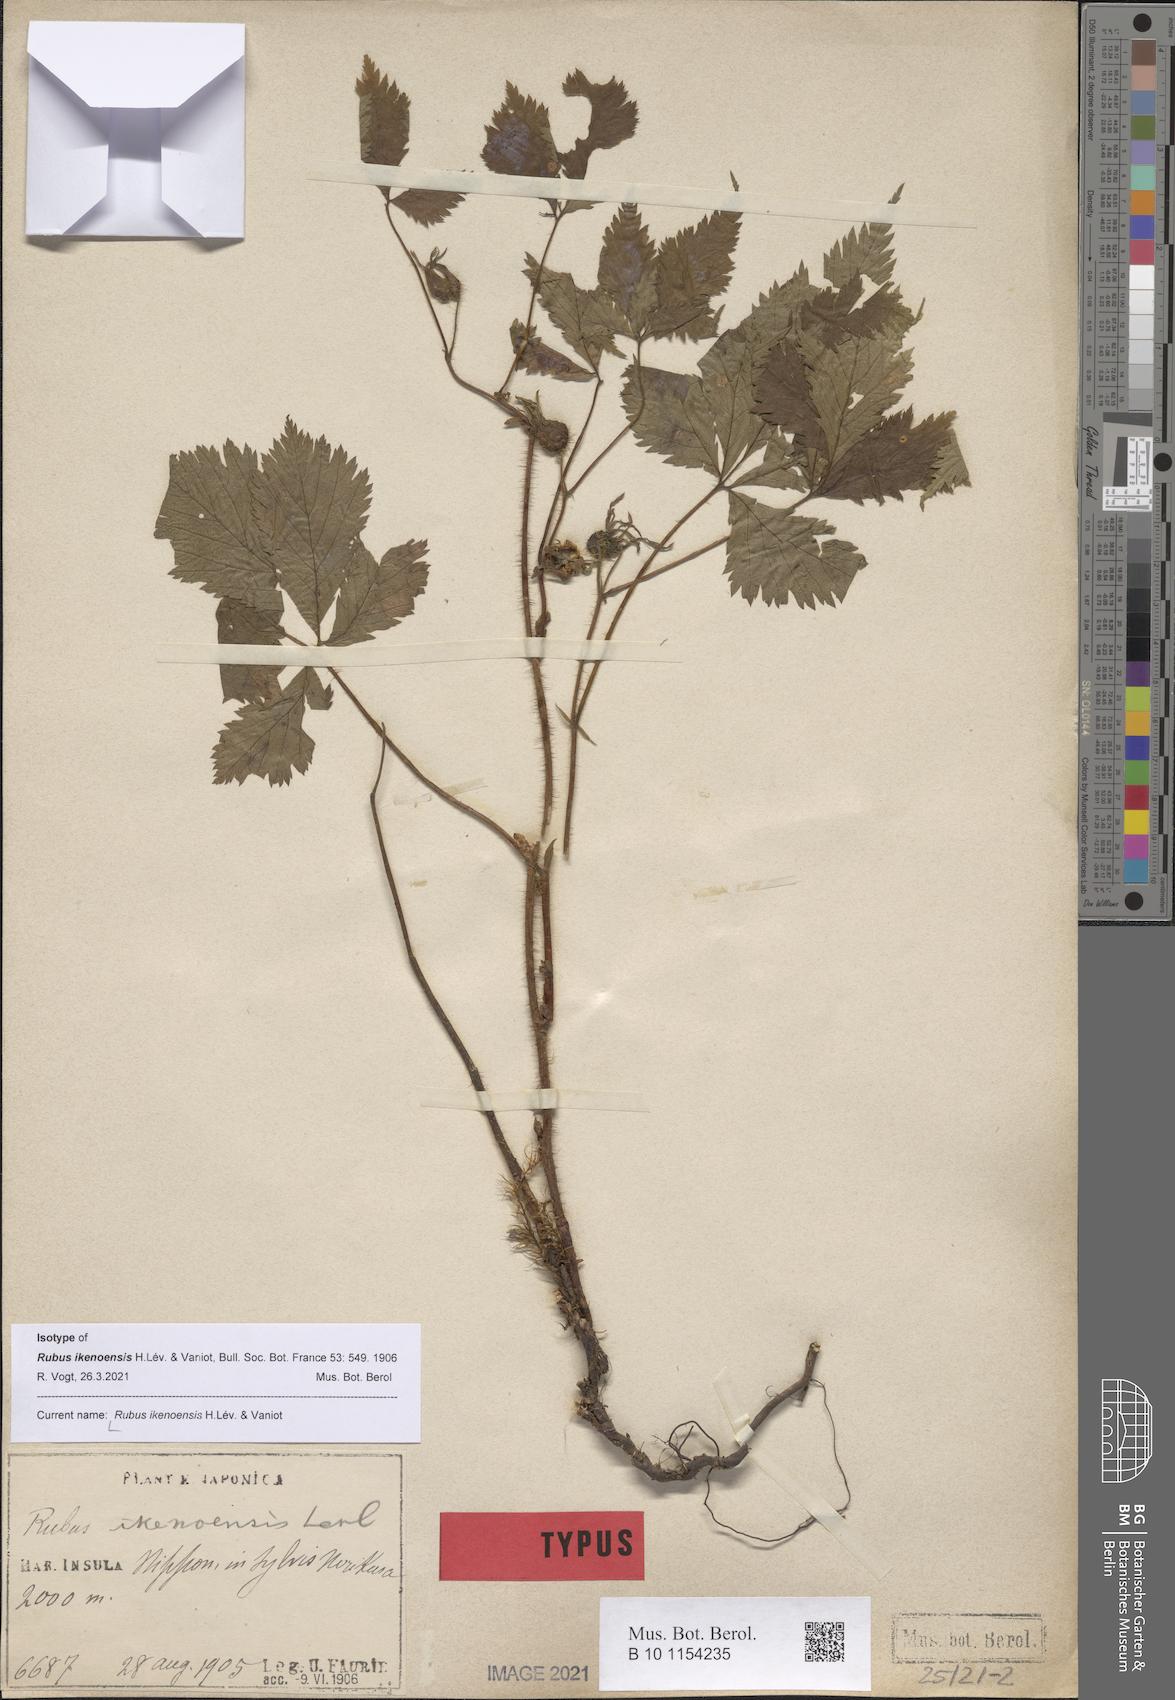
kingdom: Plantae
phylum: Tracheophyta
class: Magnoliopsida
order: Rosales
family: Rosaceae
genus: Rubus
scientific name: Rubus idaeus
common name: Raspberry
